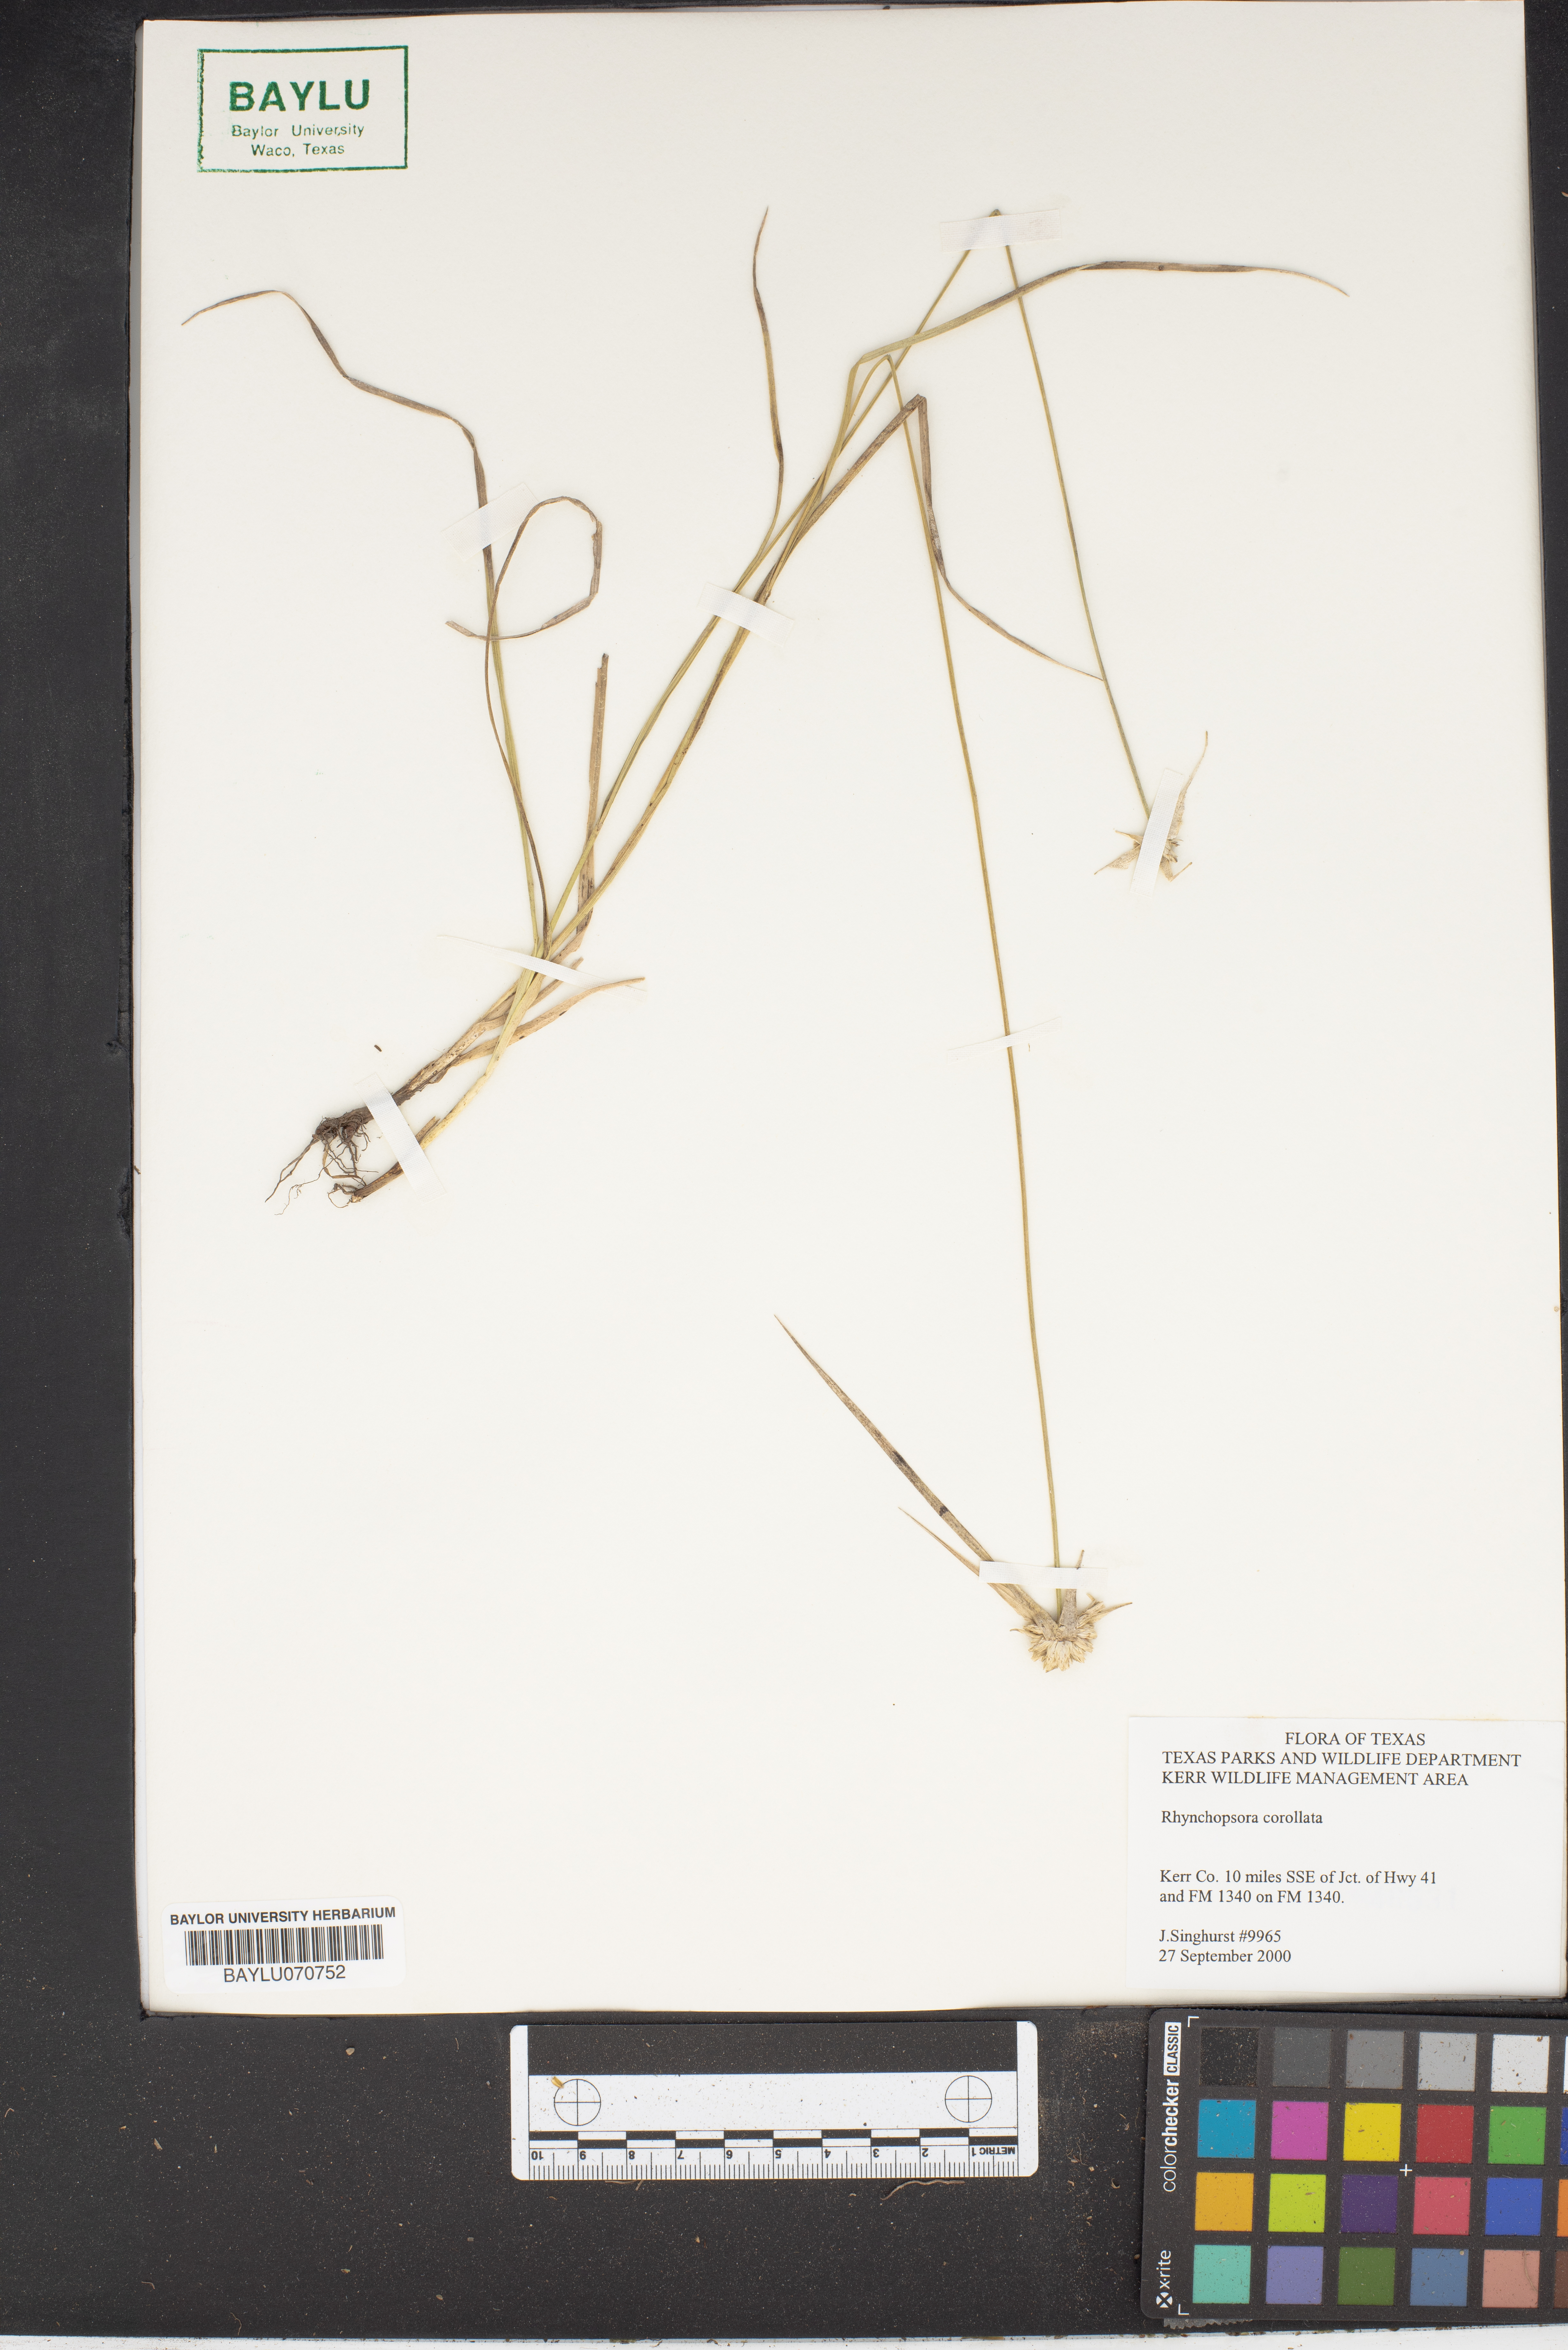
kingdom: Plantae
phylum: Tracheophyta
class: Liliopsida
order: Poales
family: Cyperaceae
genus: Rhynchospora
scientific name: Rhynchospora colorata
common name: Star sedge
